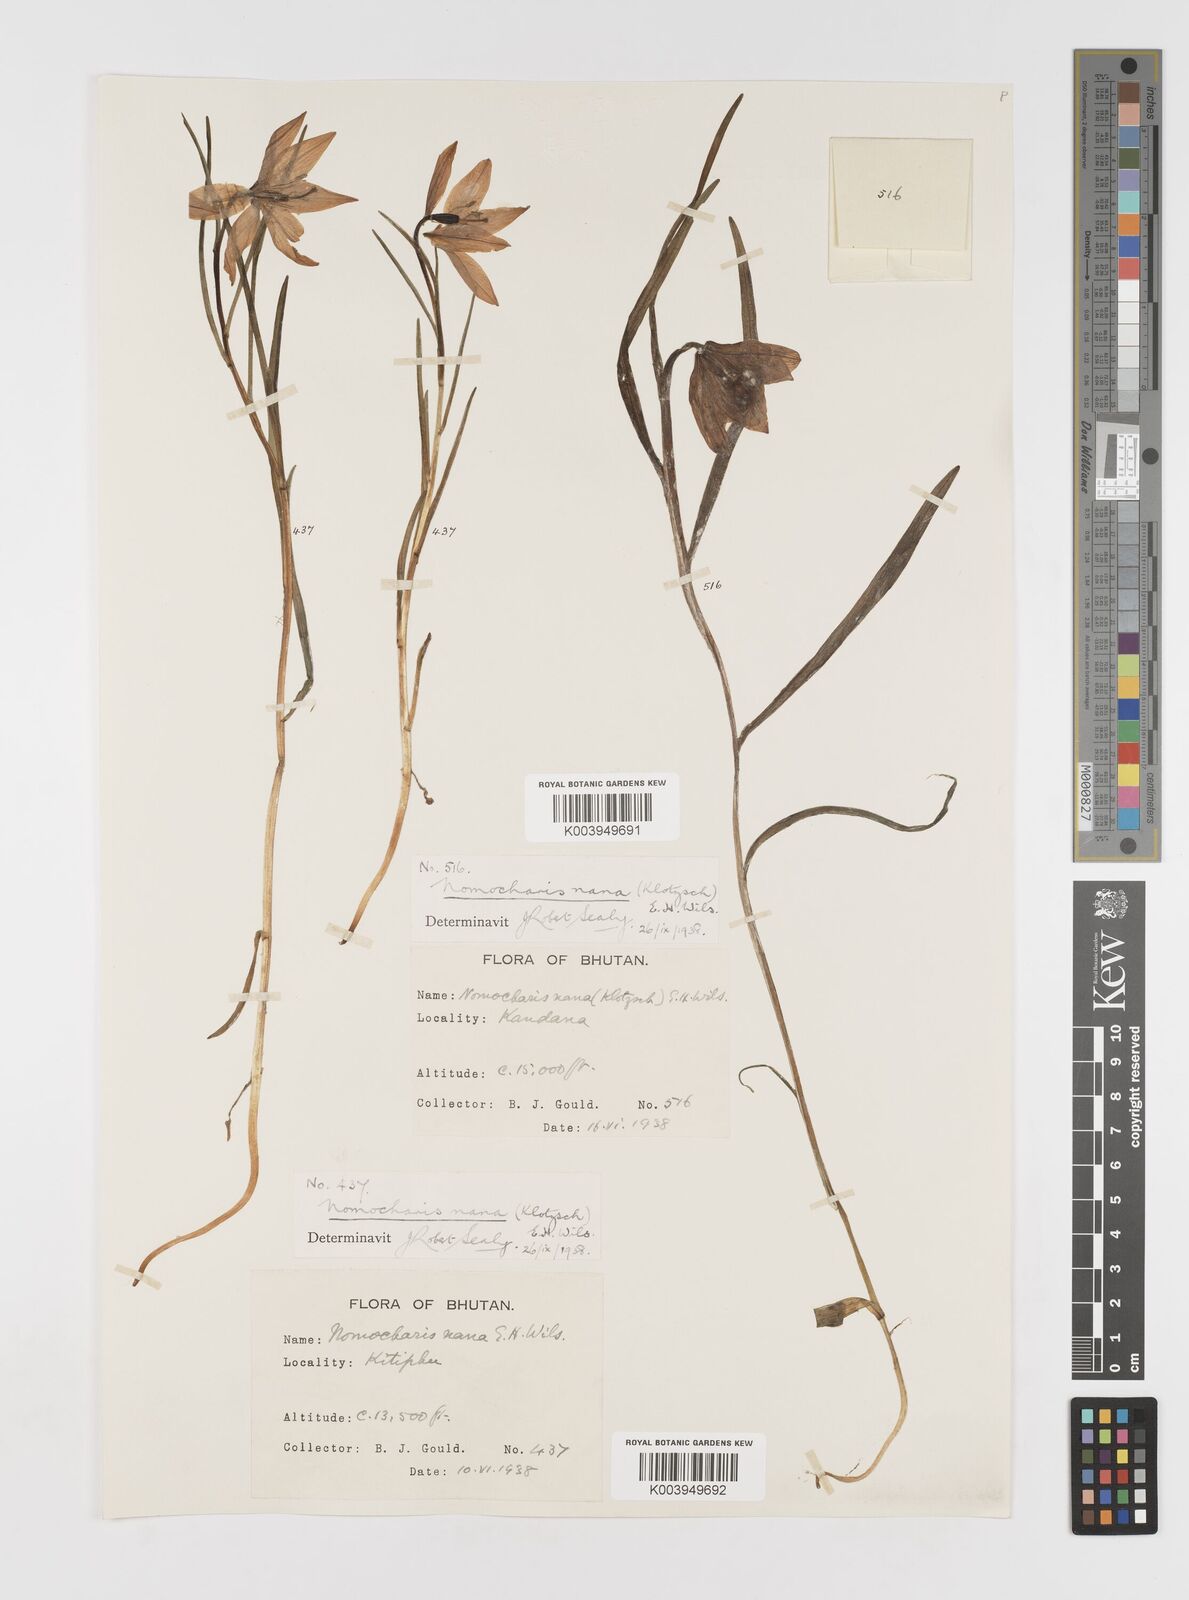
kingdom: Plantae
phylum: Tracheophyta
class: Liliopsida
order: Liliales
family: Liliaceae
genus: Lilium
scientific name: Lilium nanum
